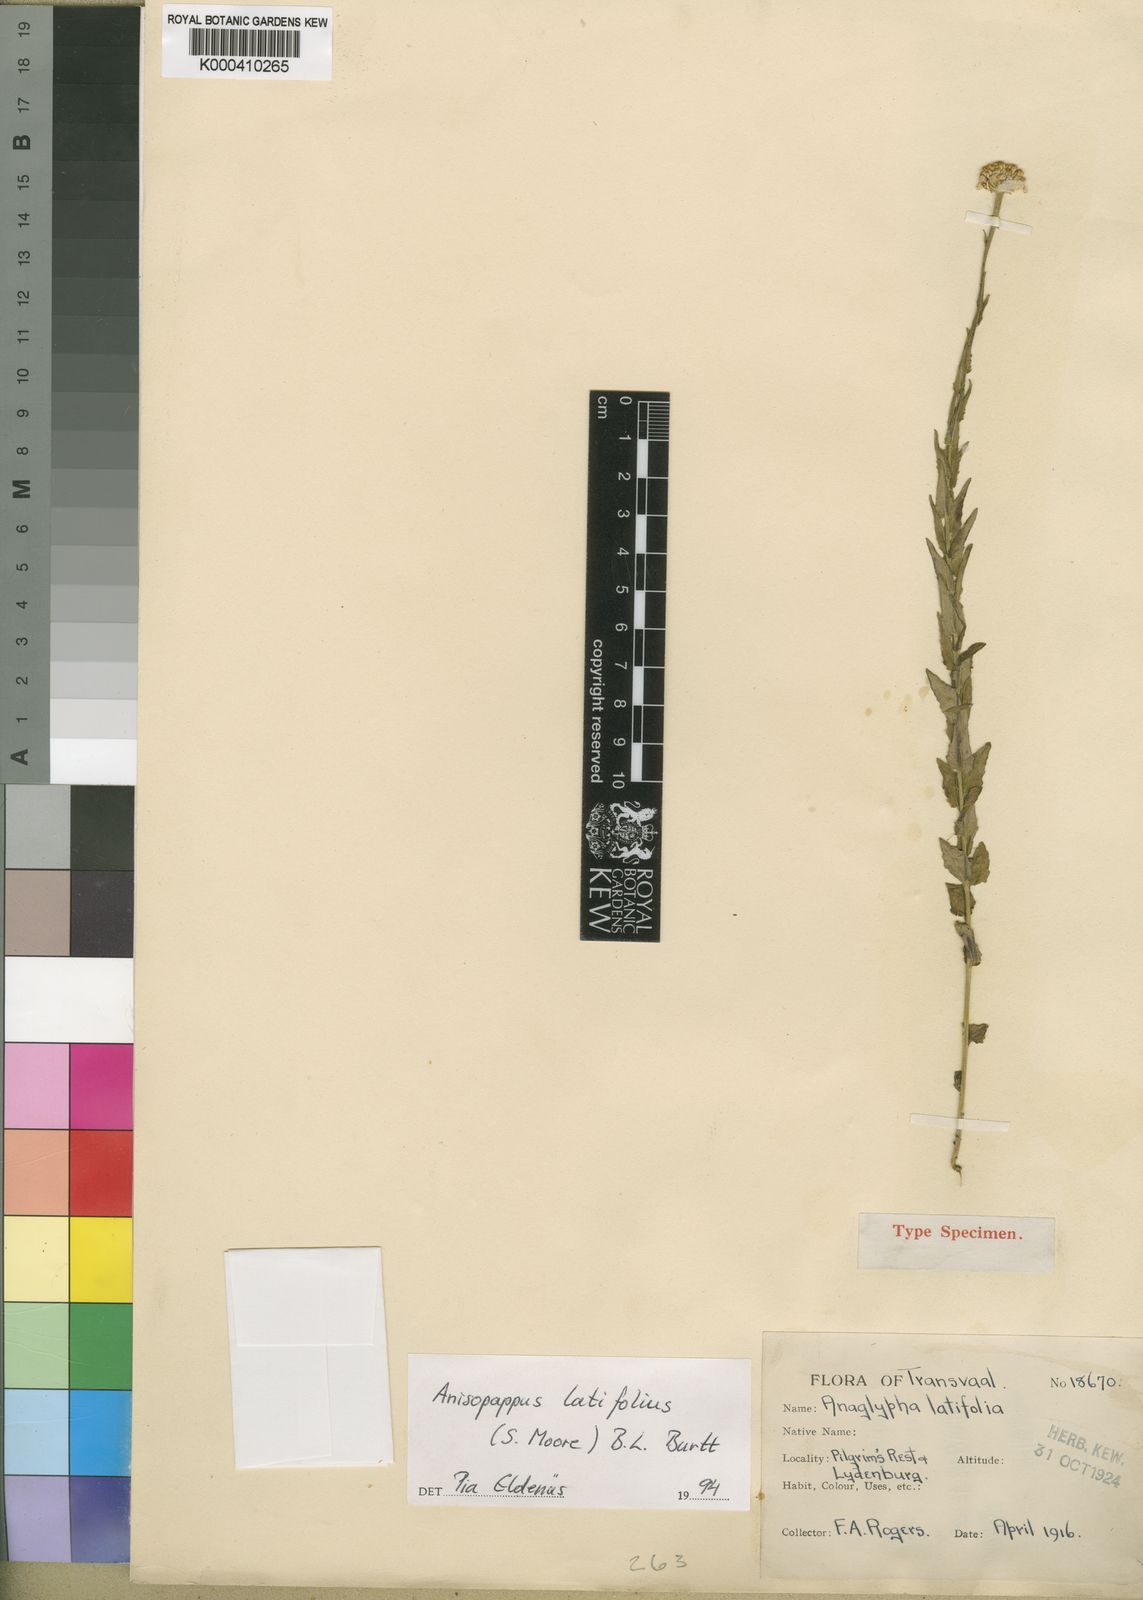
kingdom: Plantae
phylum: Tracheophyta
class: Magnoliopsida
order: Asterales
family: Asteraceae
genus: Anisopappus
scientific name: Anisopappus latifolius
